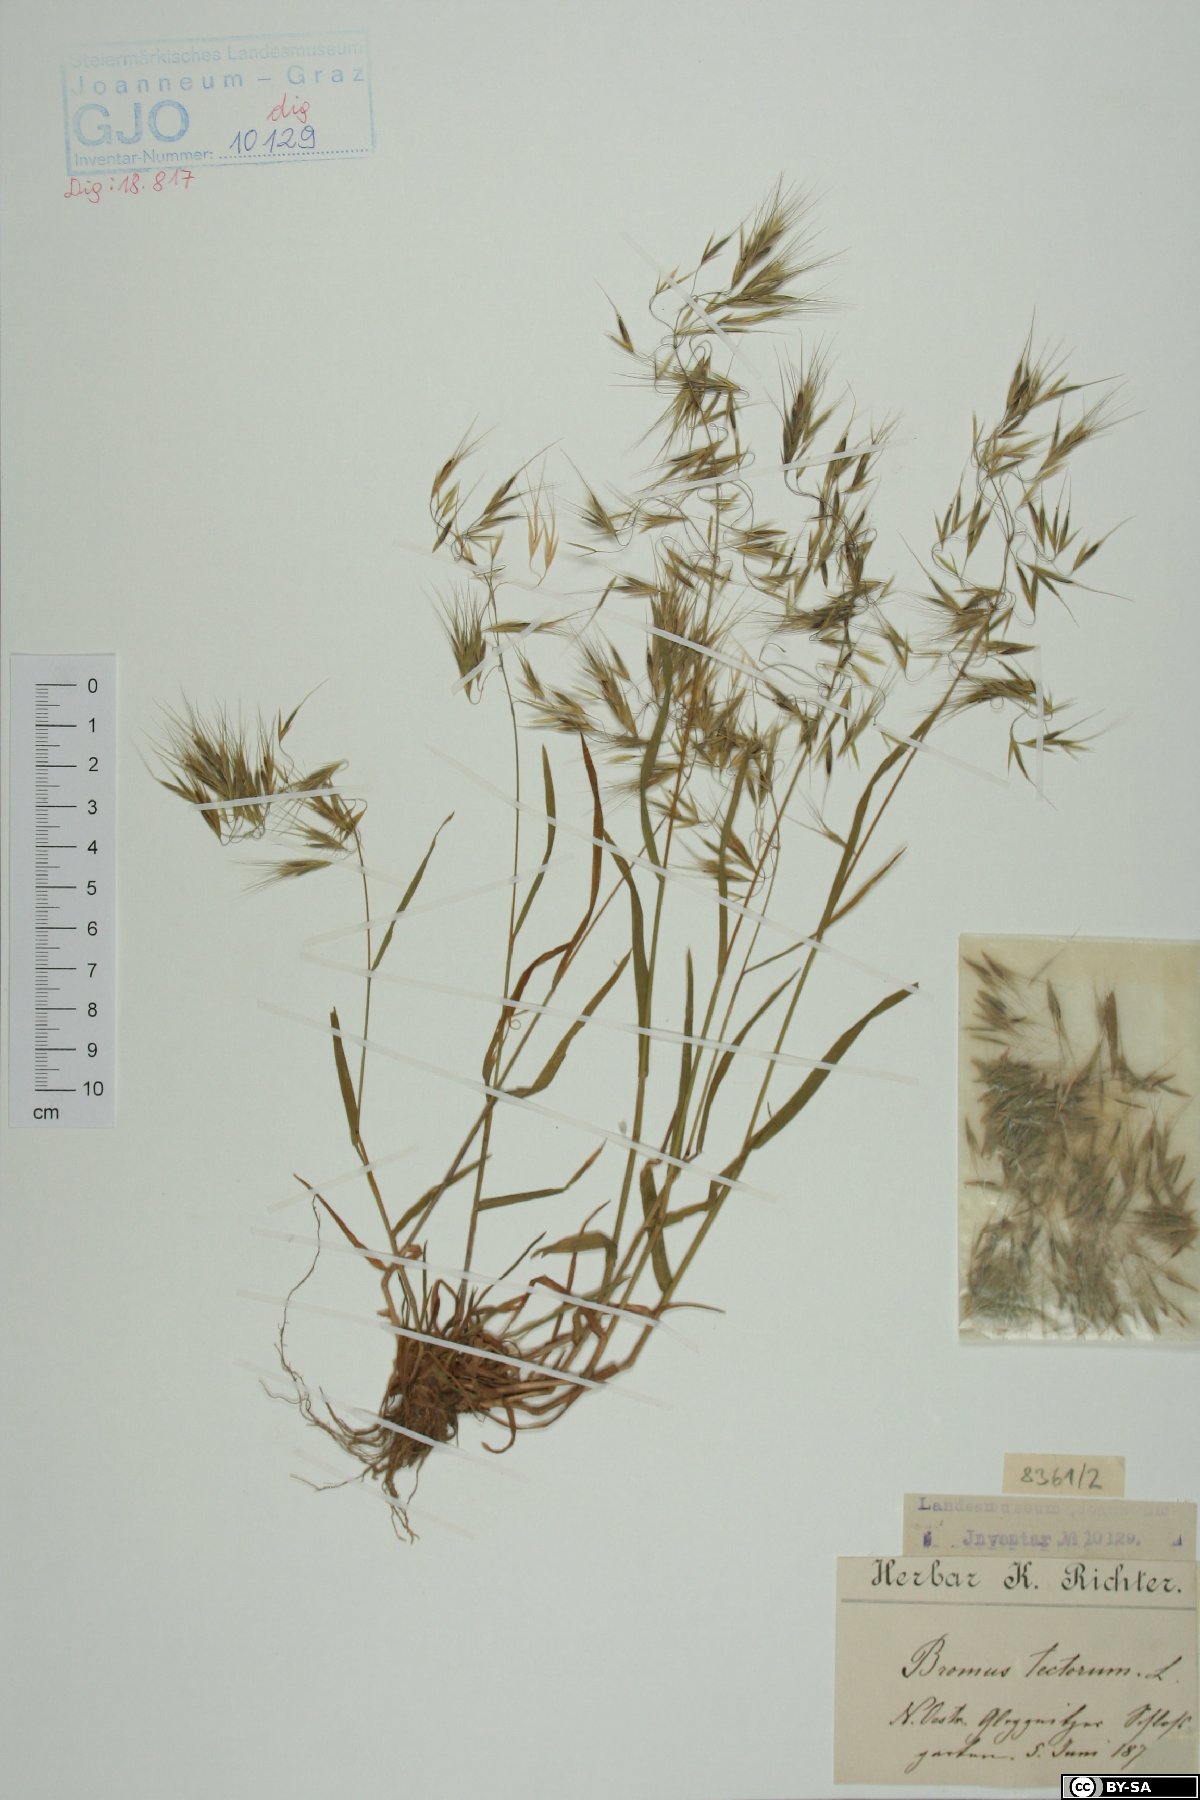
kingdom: Plantae
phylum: Tracheophyta
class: Liliopsida
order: Poales
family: Poaceae
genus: Bromus
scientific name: Bromus tectorum
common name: Cheatgrass
